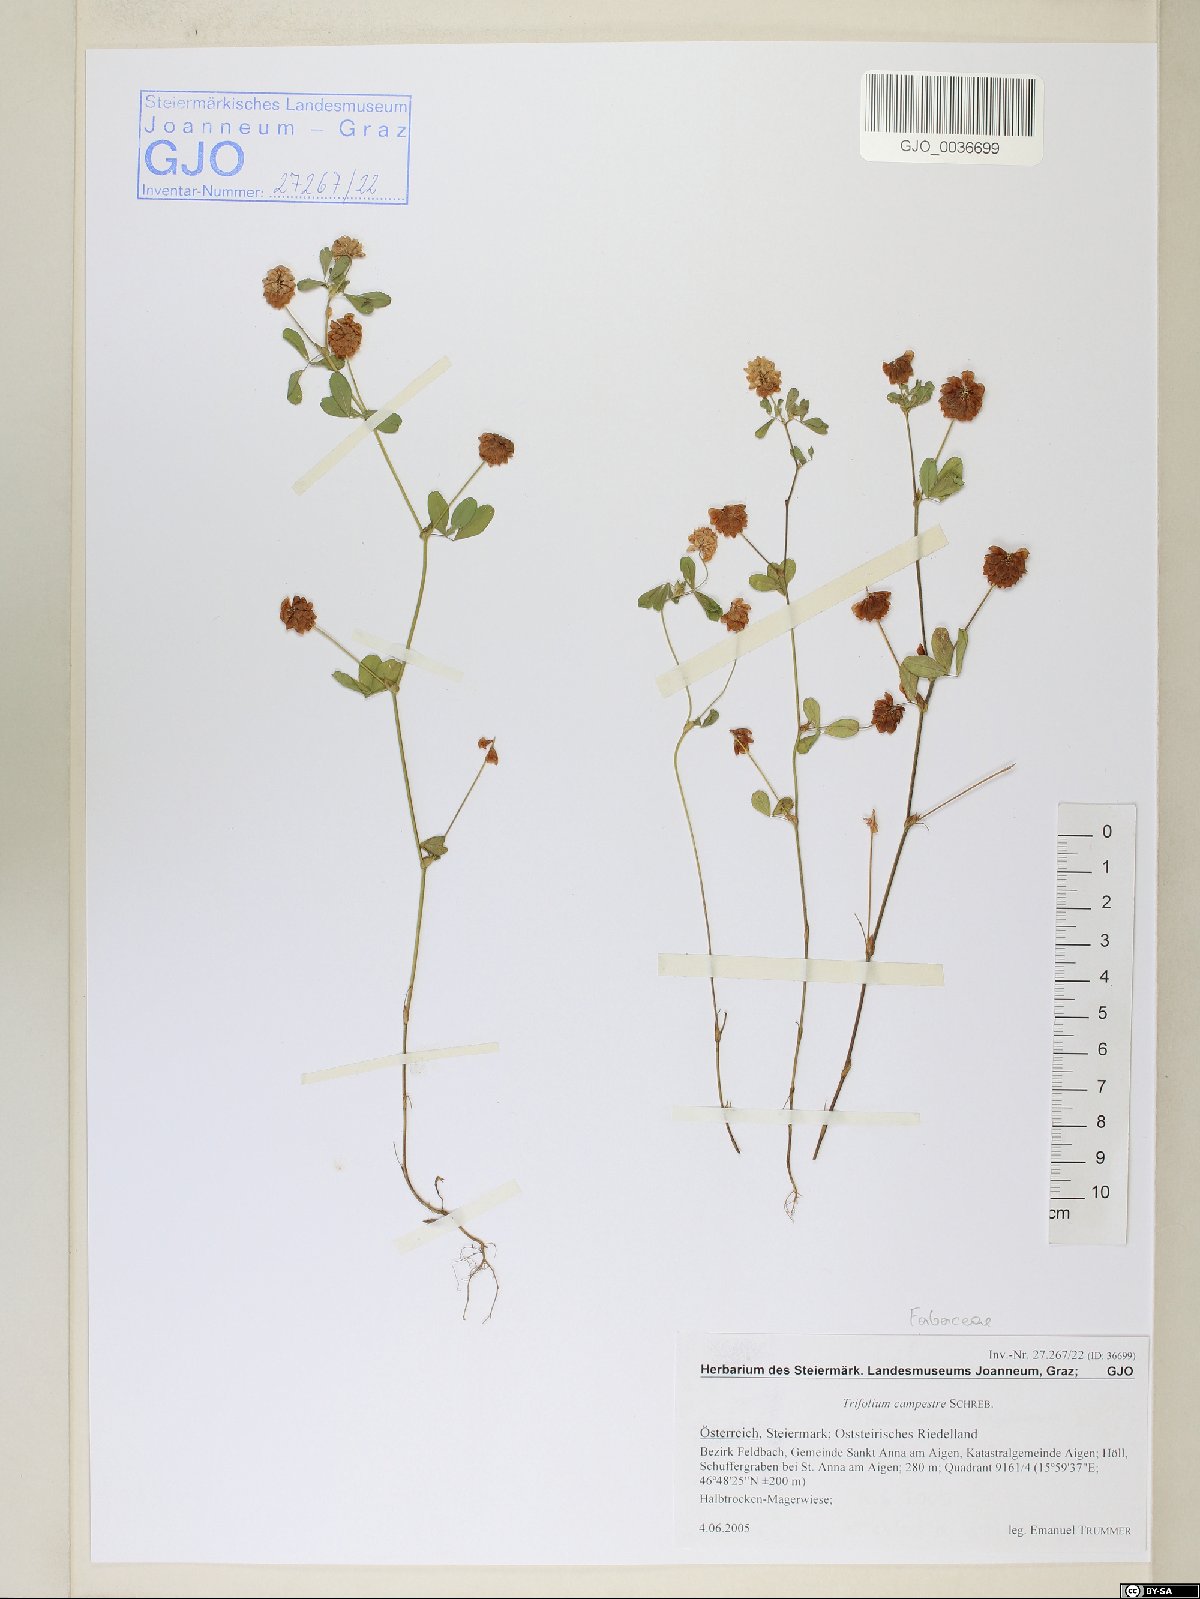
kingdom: Plantae
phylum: Tracheophyta
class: Magnoliopsida
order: Fabales
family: Fabaceae
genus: Trifolium
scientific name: Trifolium campestre
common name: Field clover
